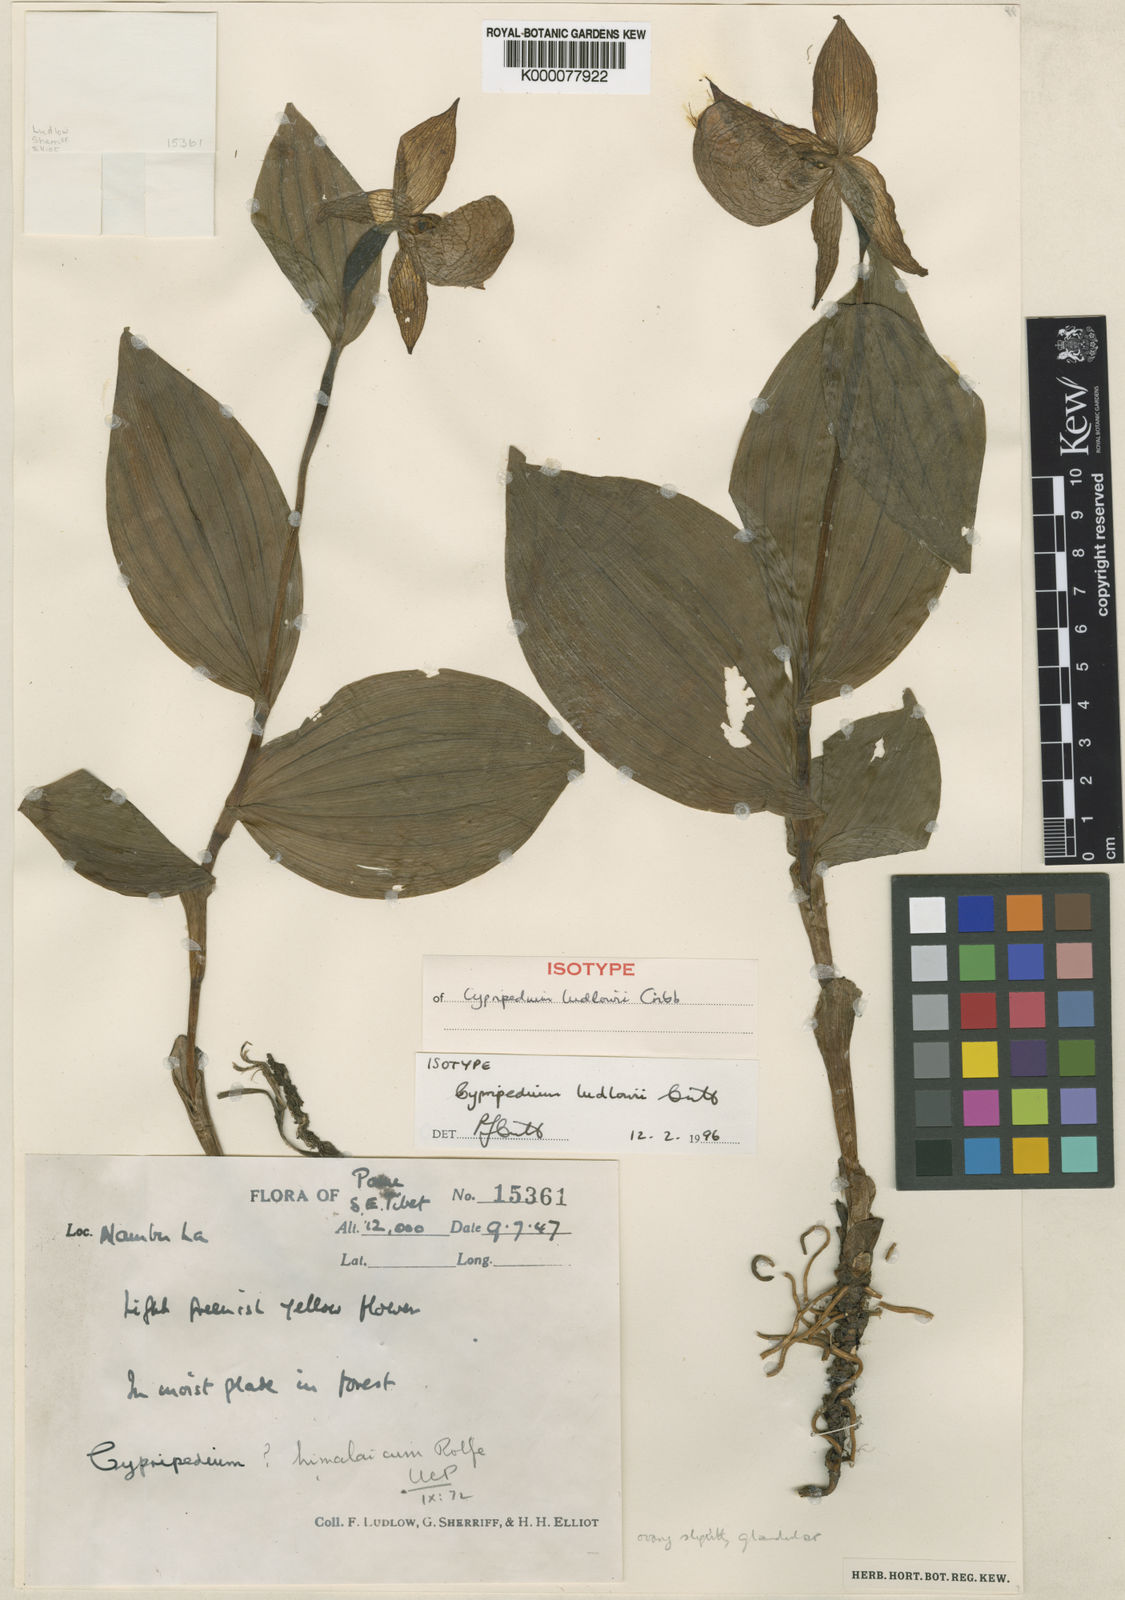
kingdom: Plantae
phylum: Tracheophyta
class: Liliopsida
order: Asparagales
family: Orchidaceae
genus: Cypripedium
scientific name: Cypripedium ludlowii
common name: Ludlow's cypripedium
